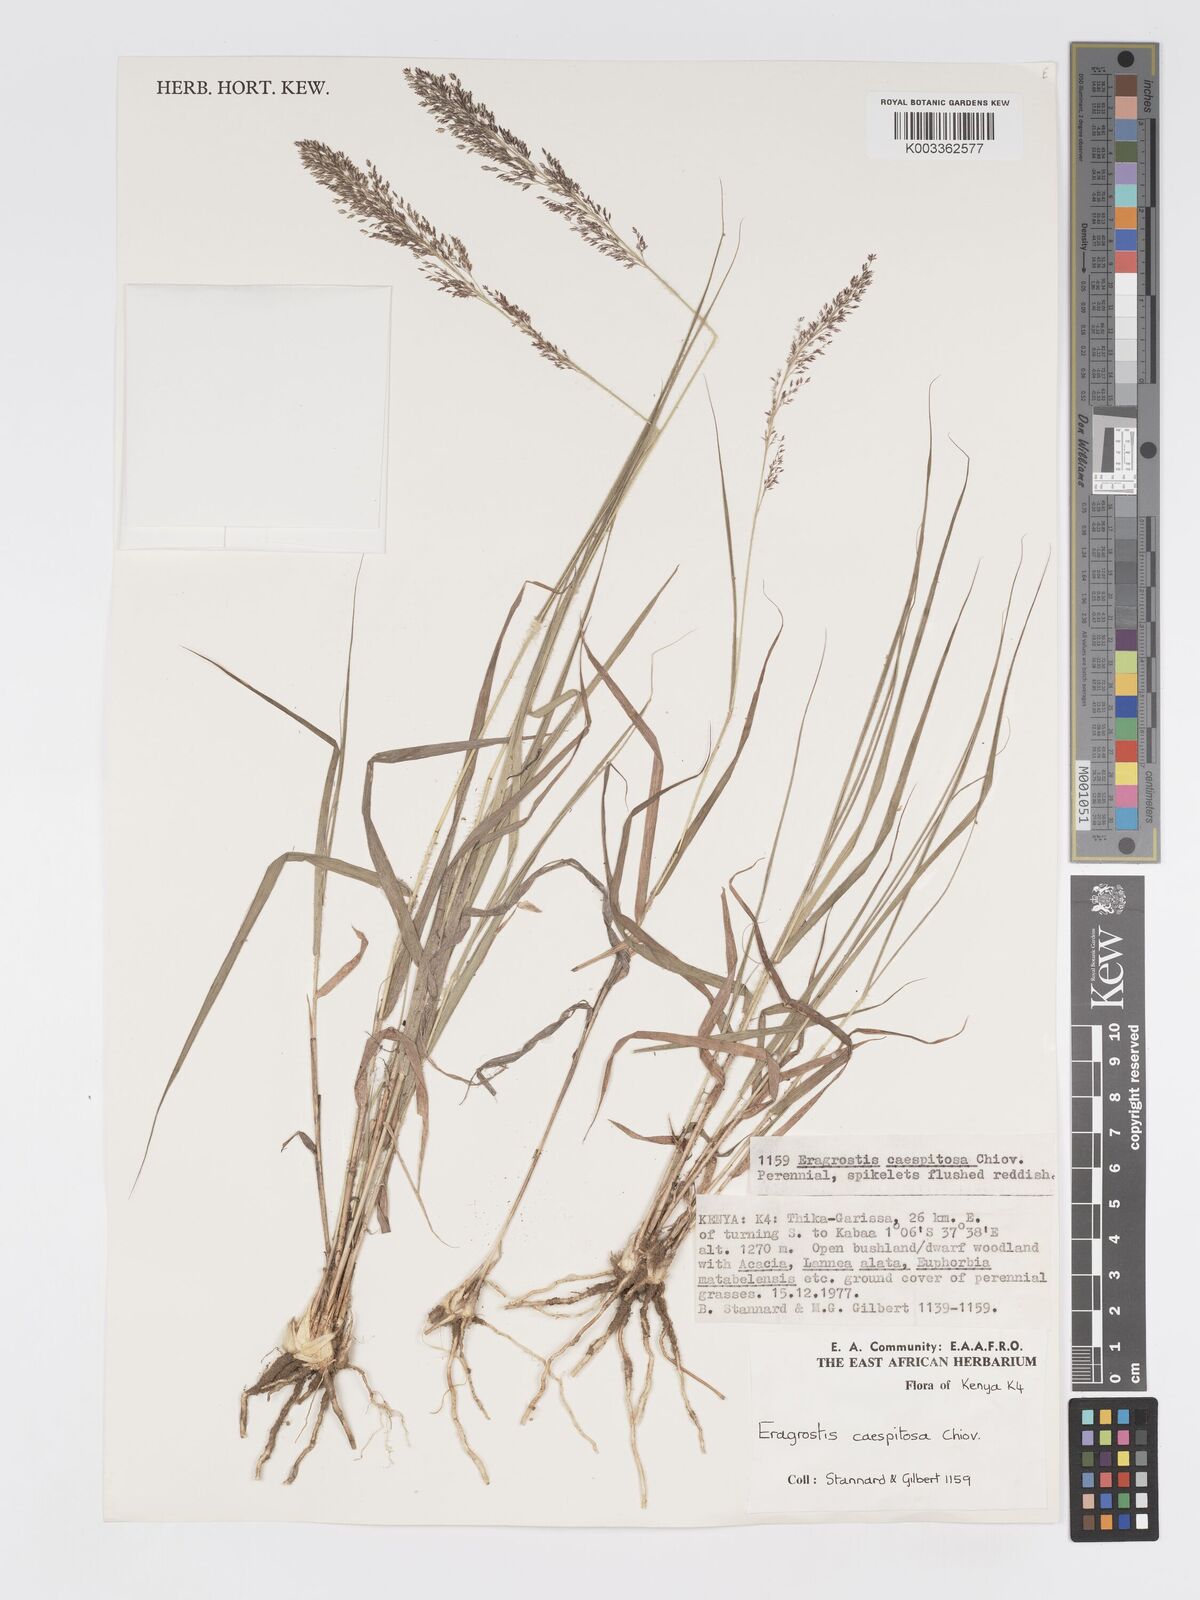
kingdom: Plantae
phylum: Tracheophyta
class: Liliopsida
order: Poales
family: Poaceae
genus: Eragrostis
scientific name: Eragrostis caespitosa
